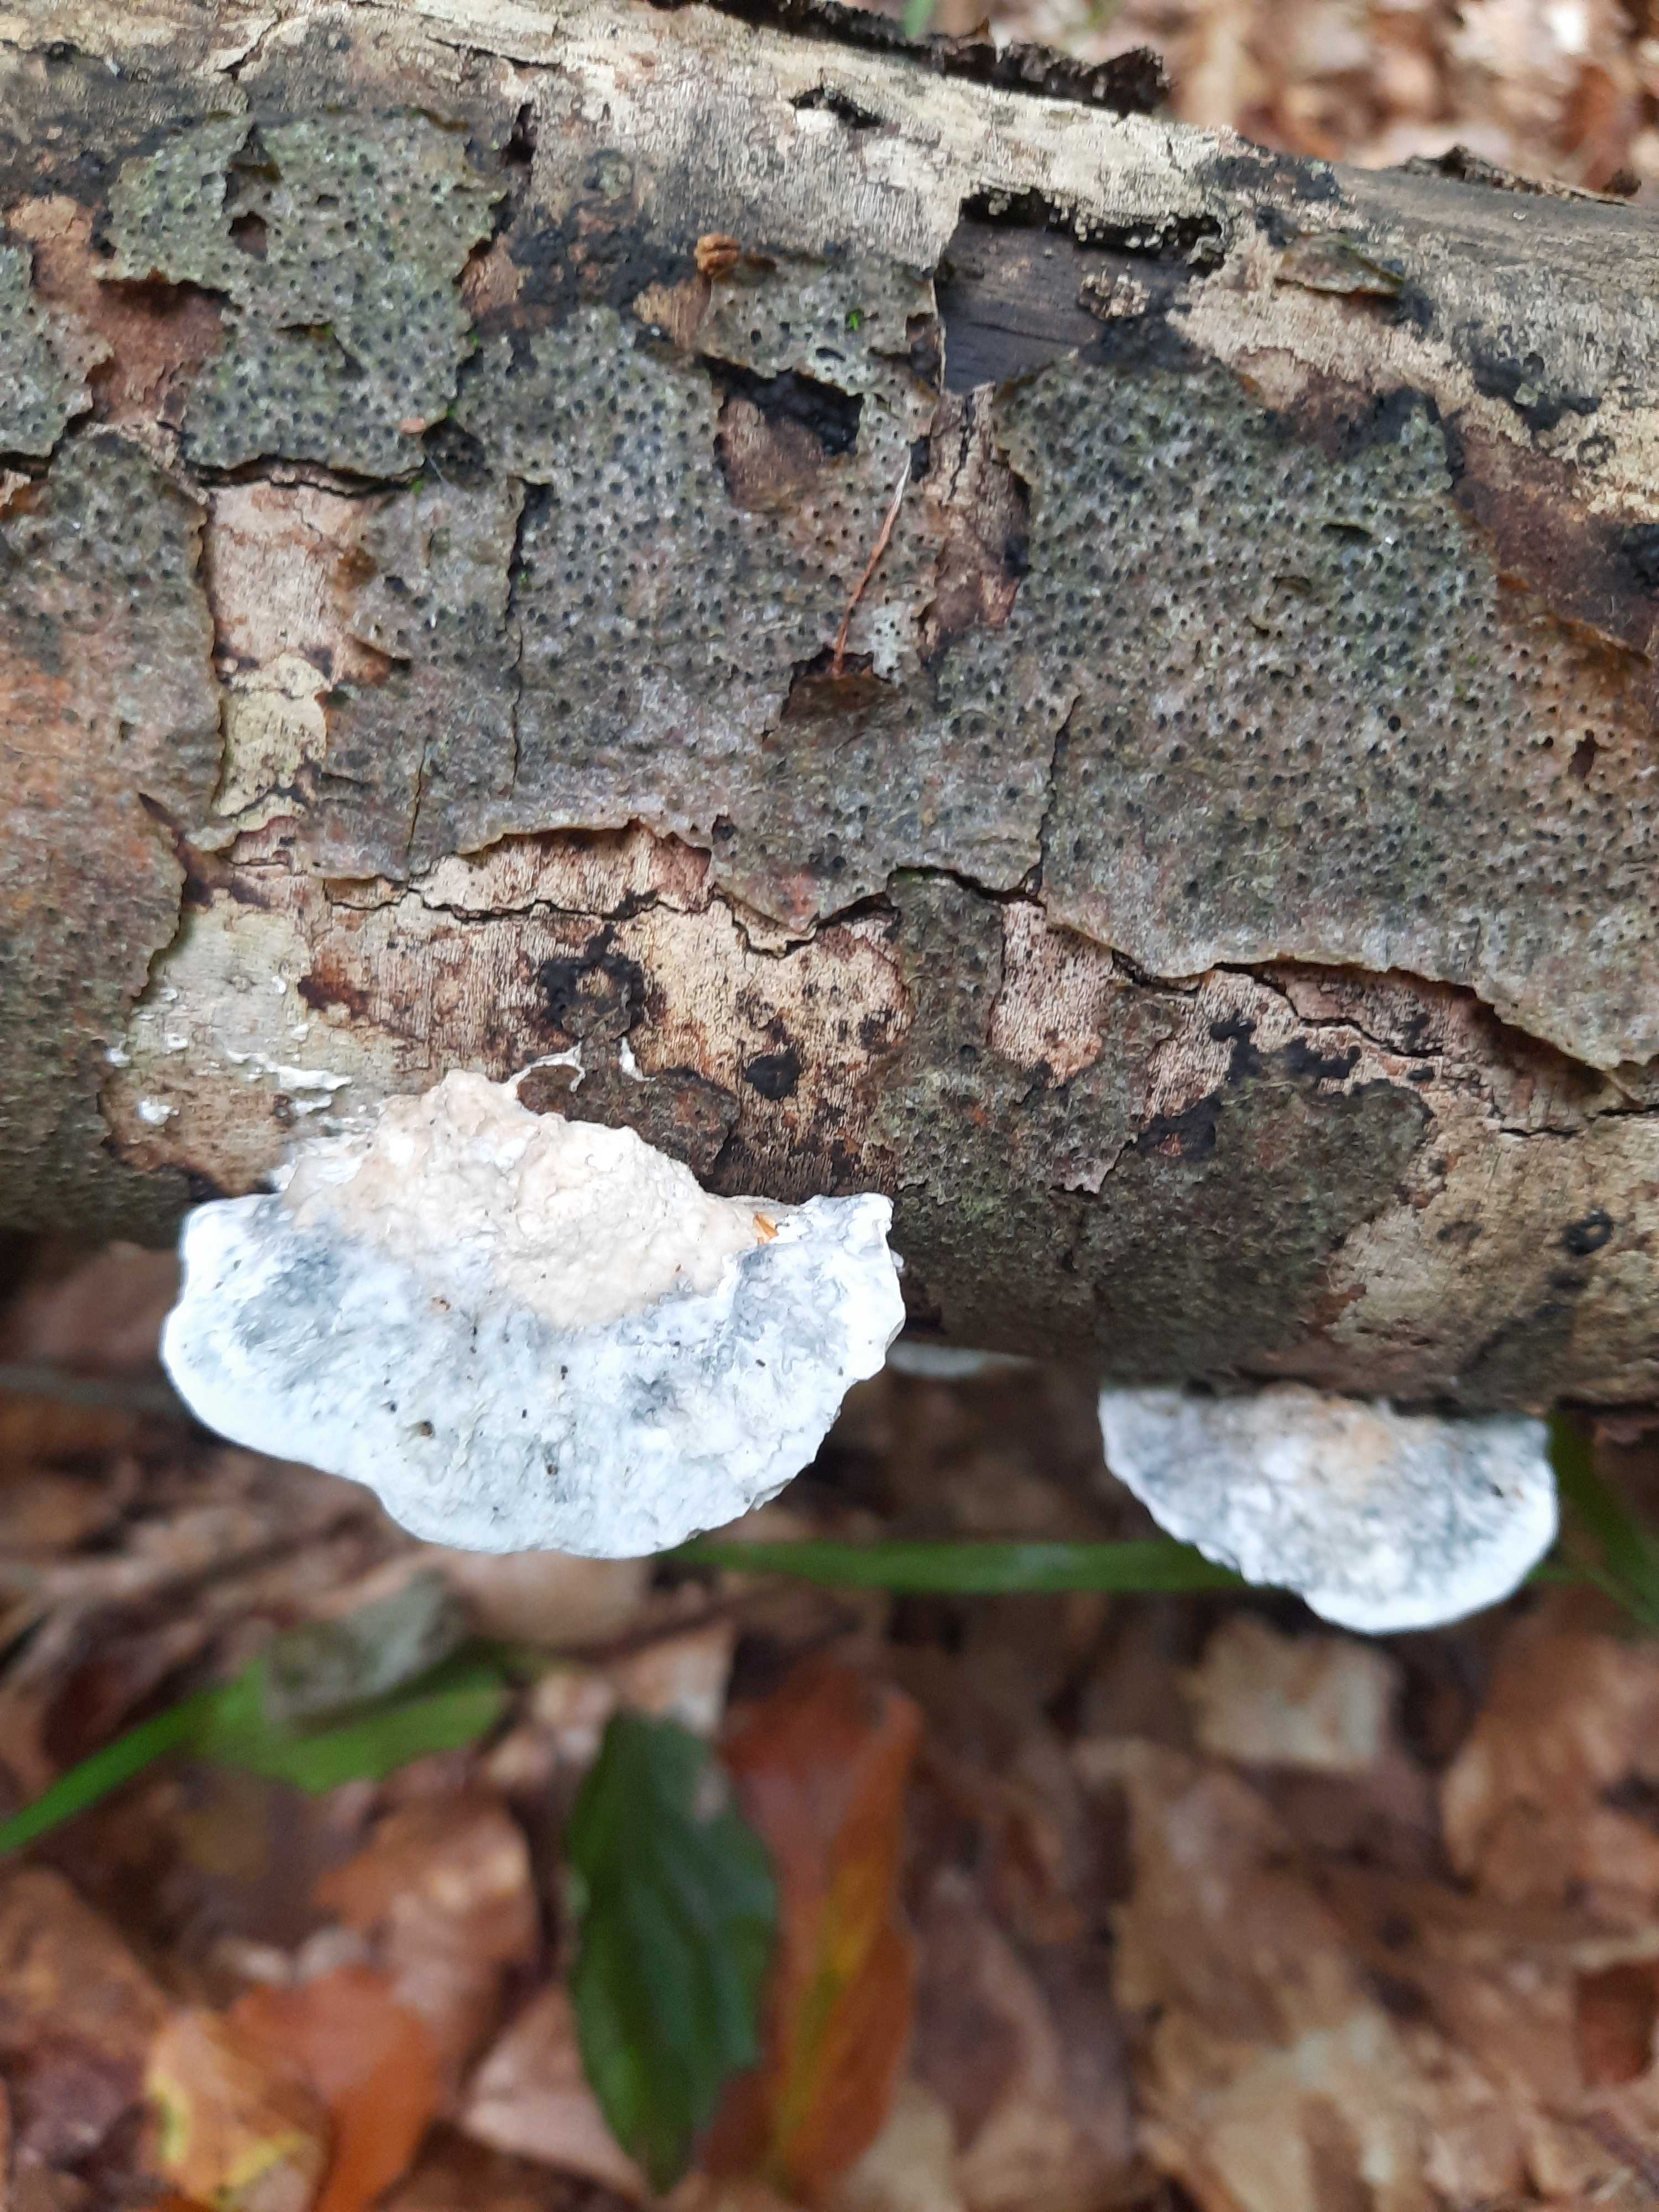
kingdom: Fungi
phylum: Basidiomycota
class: Agaricomycetes
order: Polyporales
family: Polyporaceae
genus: Cyanosporus
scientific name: Cyanosporus alni
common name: blegblå kødporesvamp
